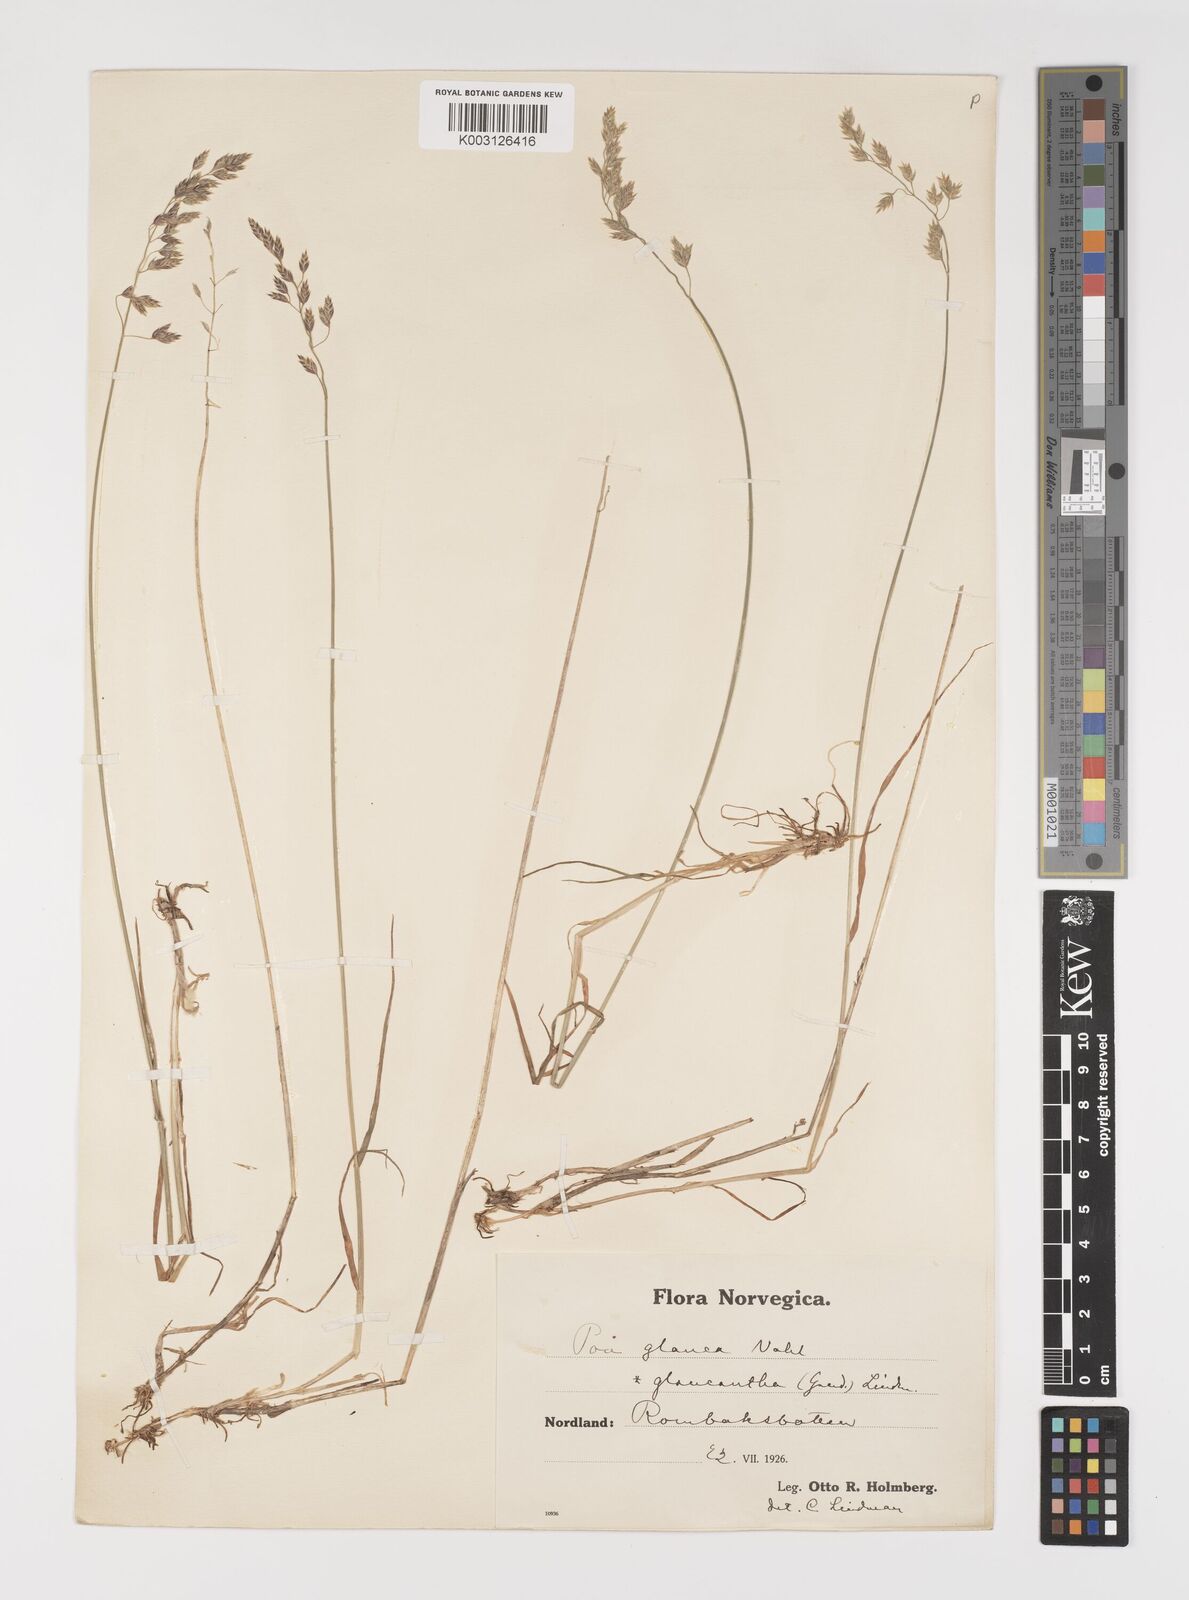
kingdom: Plantae
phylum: Tracheophyta
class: Liliopsida
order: Poales
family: Poaceae
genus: Poa
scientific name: Poa nemoralis
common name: Wood bluegrass
